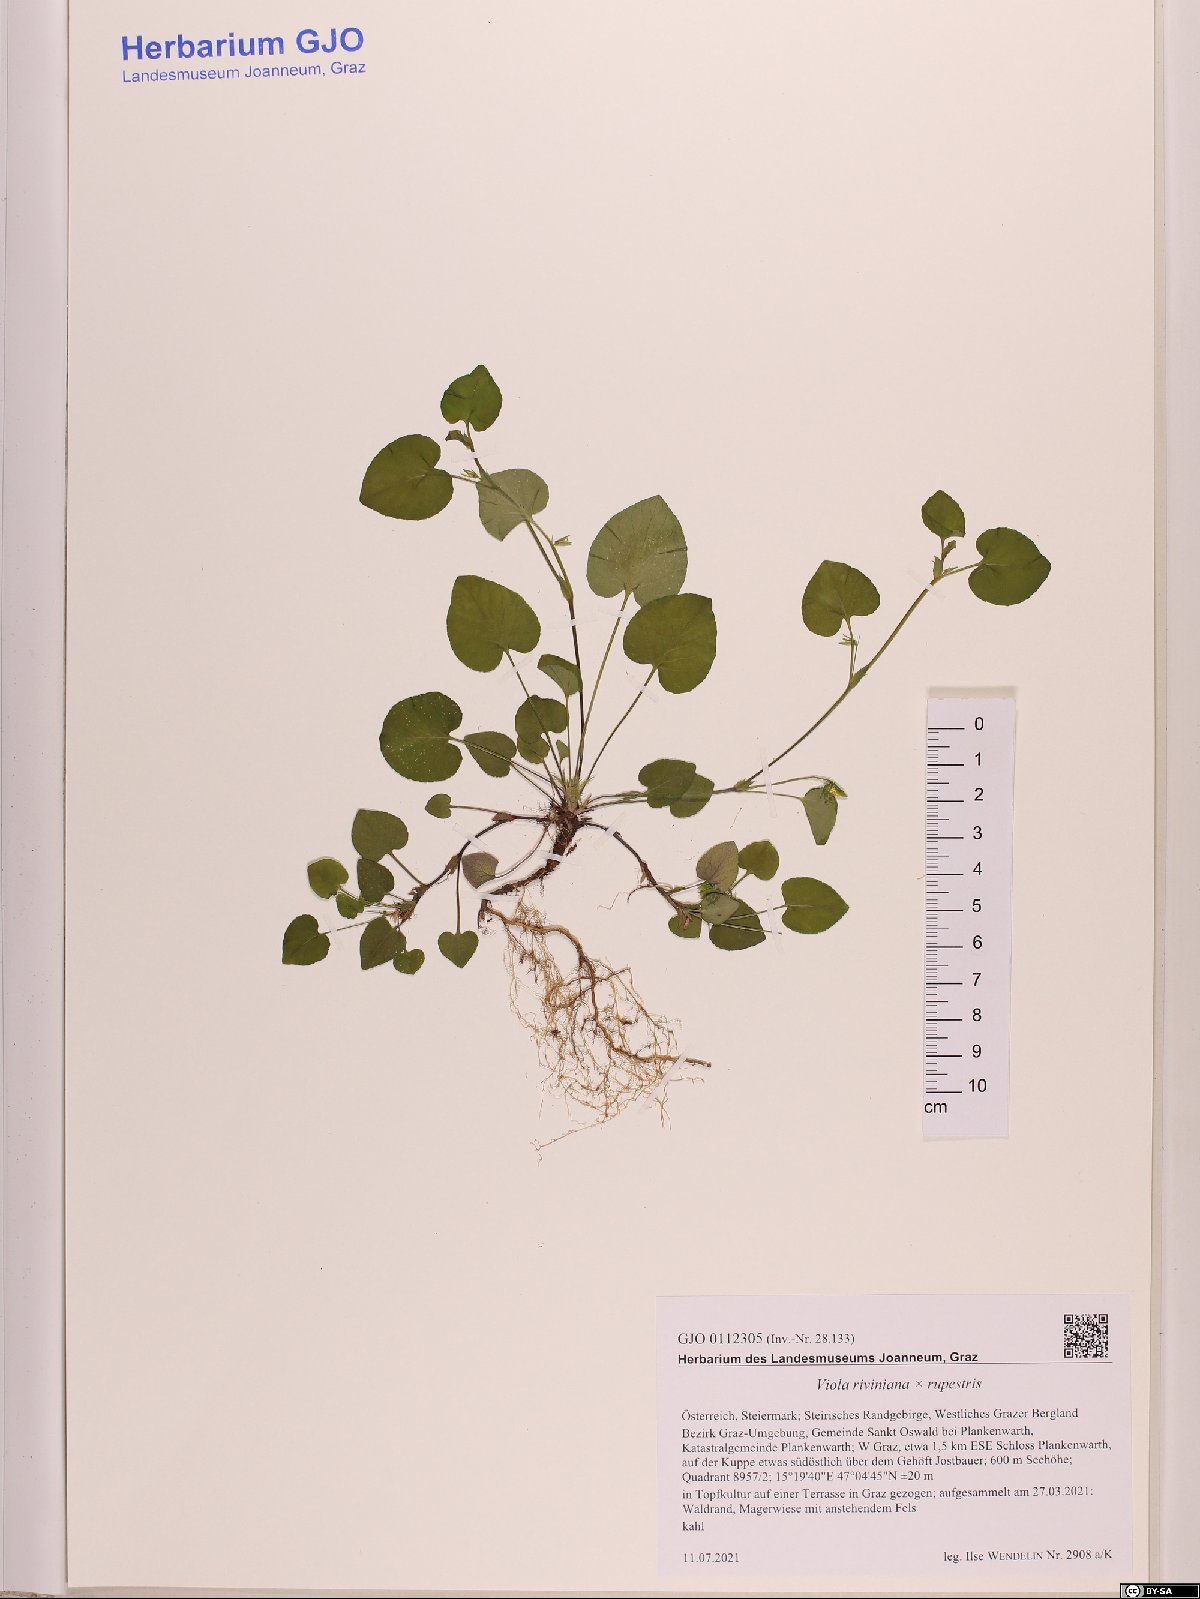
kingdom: Plantae
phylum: Tracheophyta
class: Magnoliopsida
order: Malpighiales
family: Violaceae
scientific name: Violaceae
